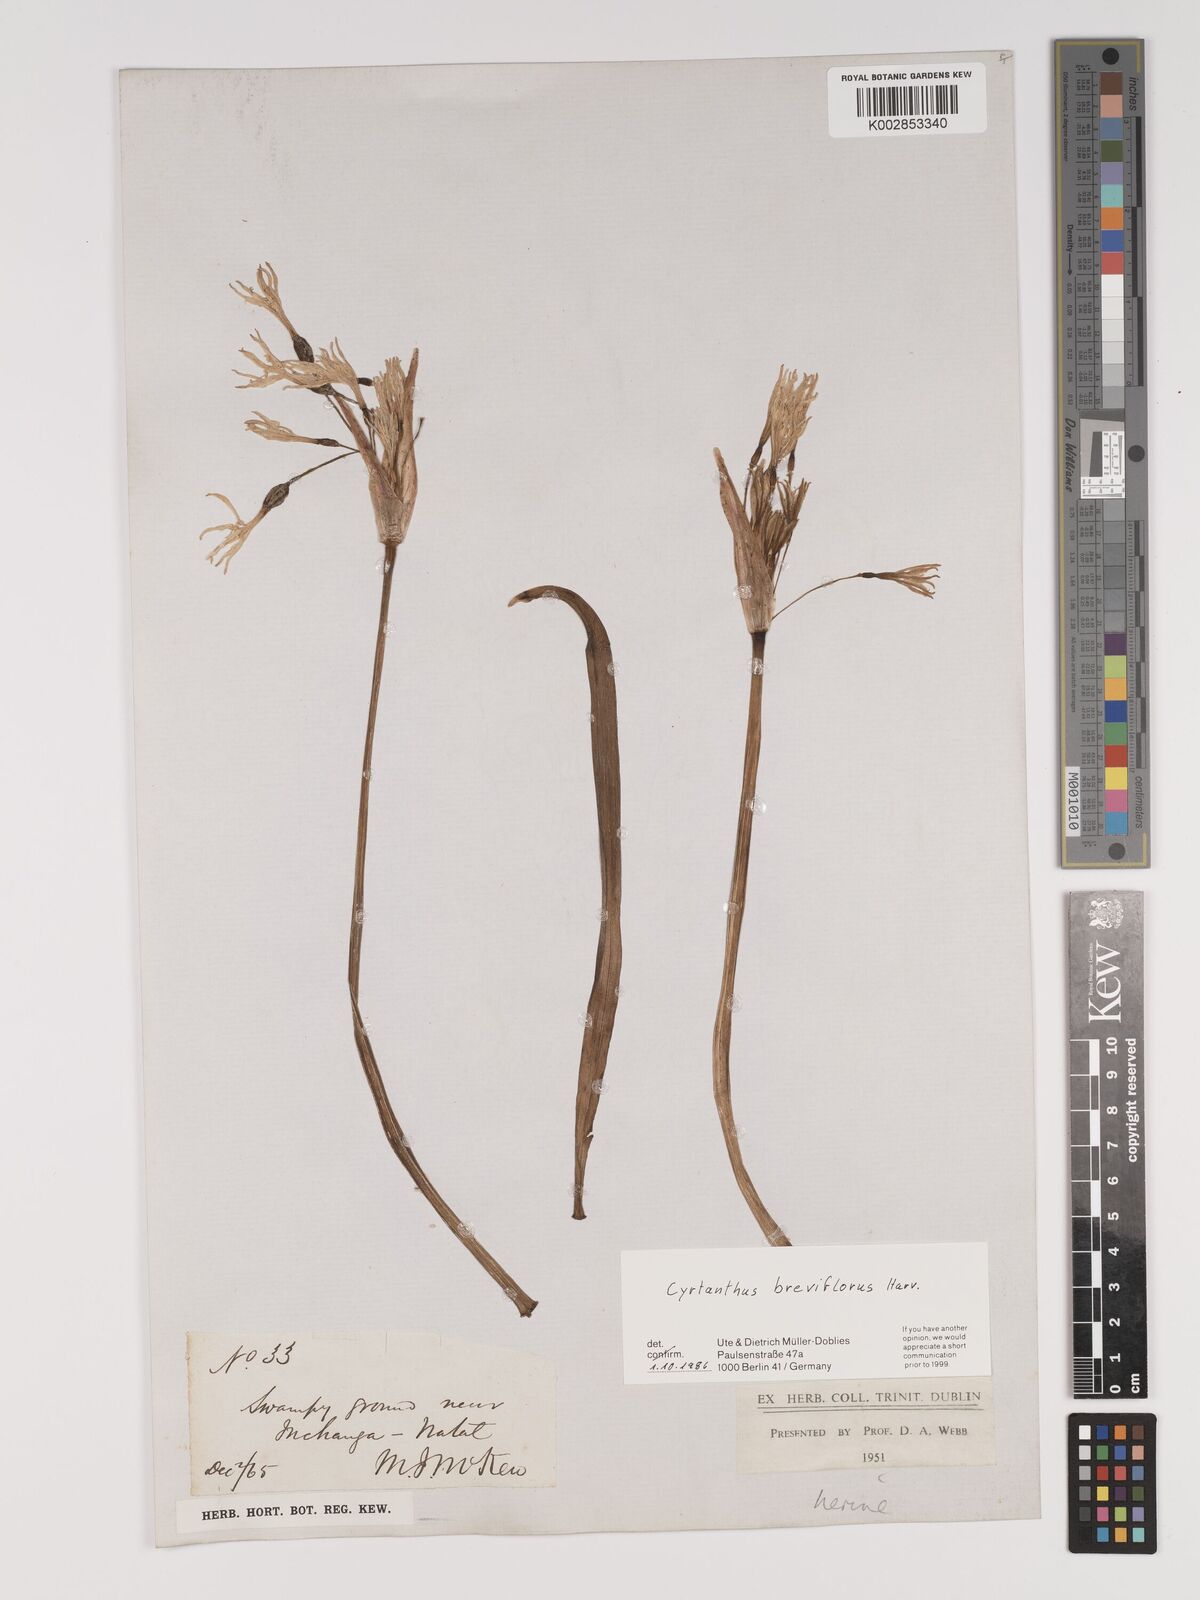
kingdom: Plantae
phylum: Tracheophyta
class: Liliopsida
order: Asparagales
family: Amaryllidaceae
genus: Cyrtanthus
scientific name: Cyrtanthus breviflorus
